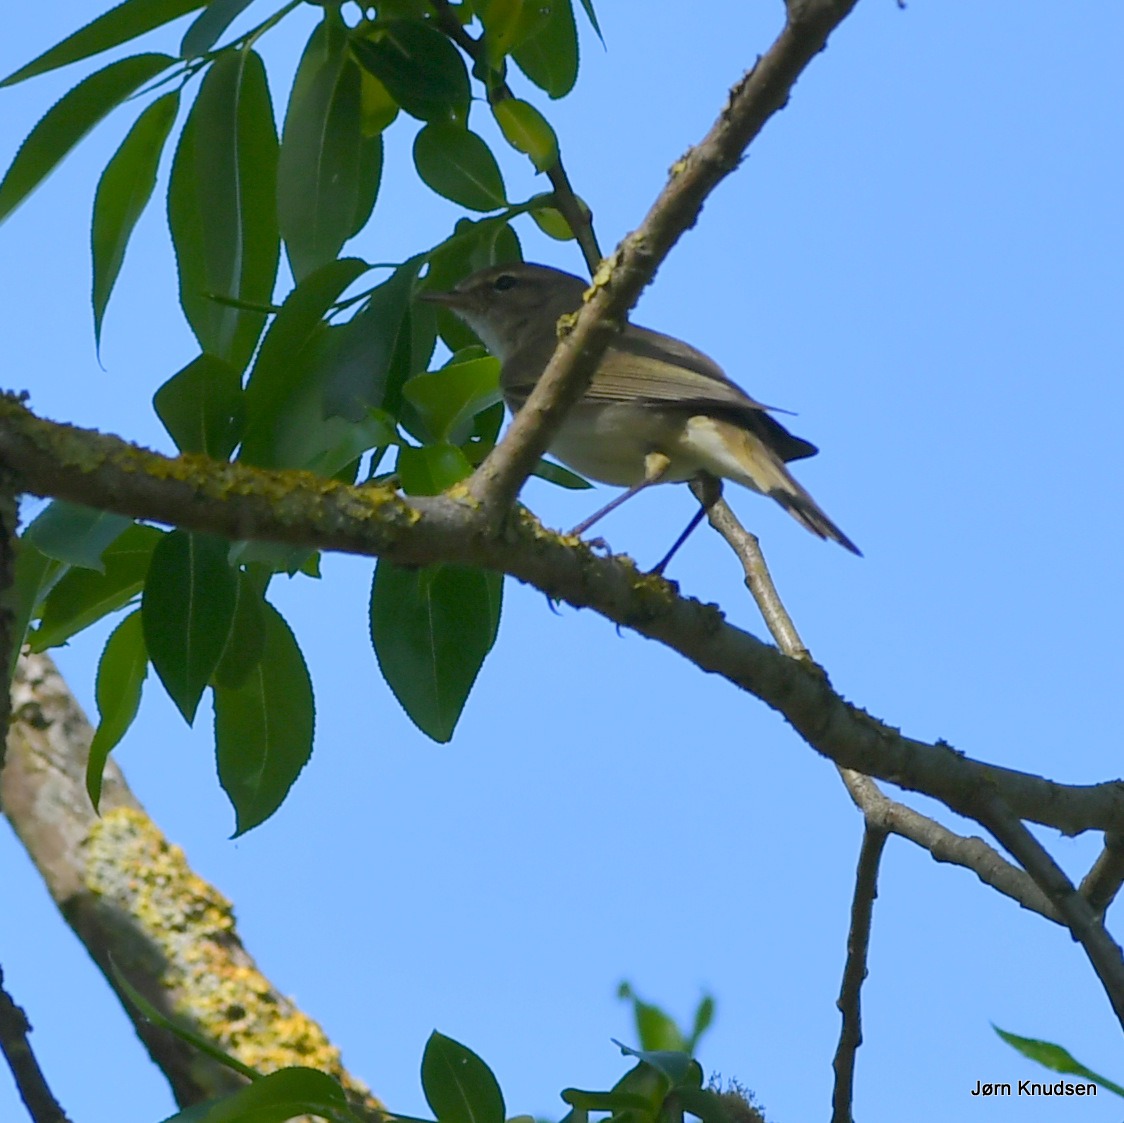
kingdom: Animalia
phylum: Chordata
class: Aves
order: Passeriformes
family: Phylloscopidae
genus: Phylloscopus
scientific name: Phylloscopus collybita
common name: Gransanger
